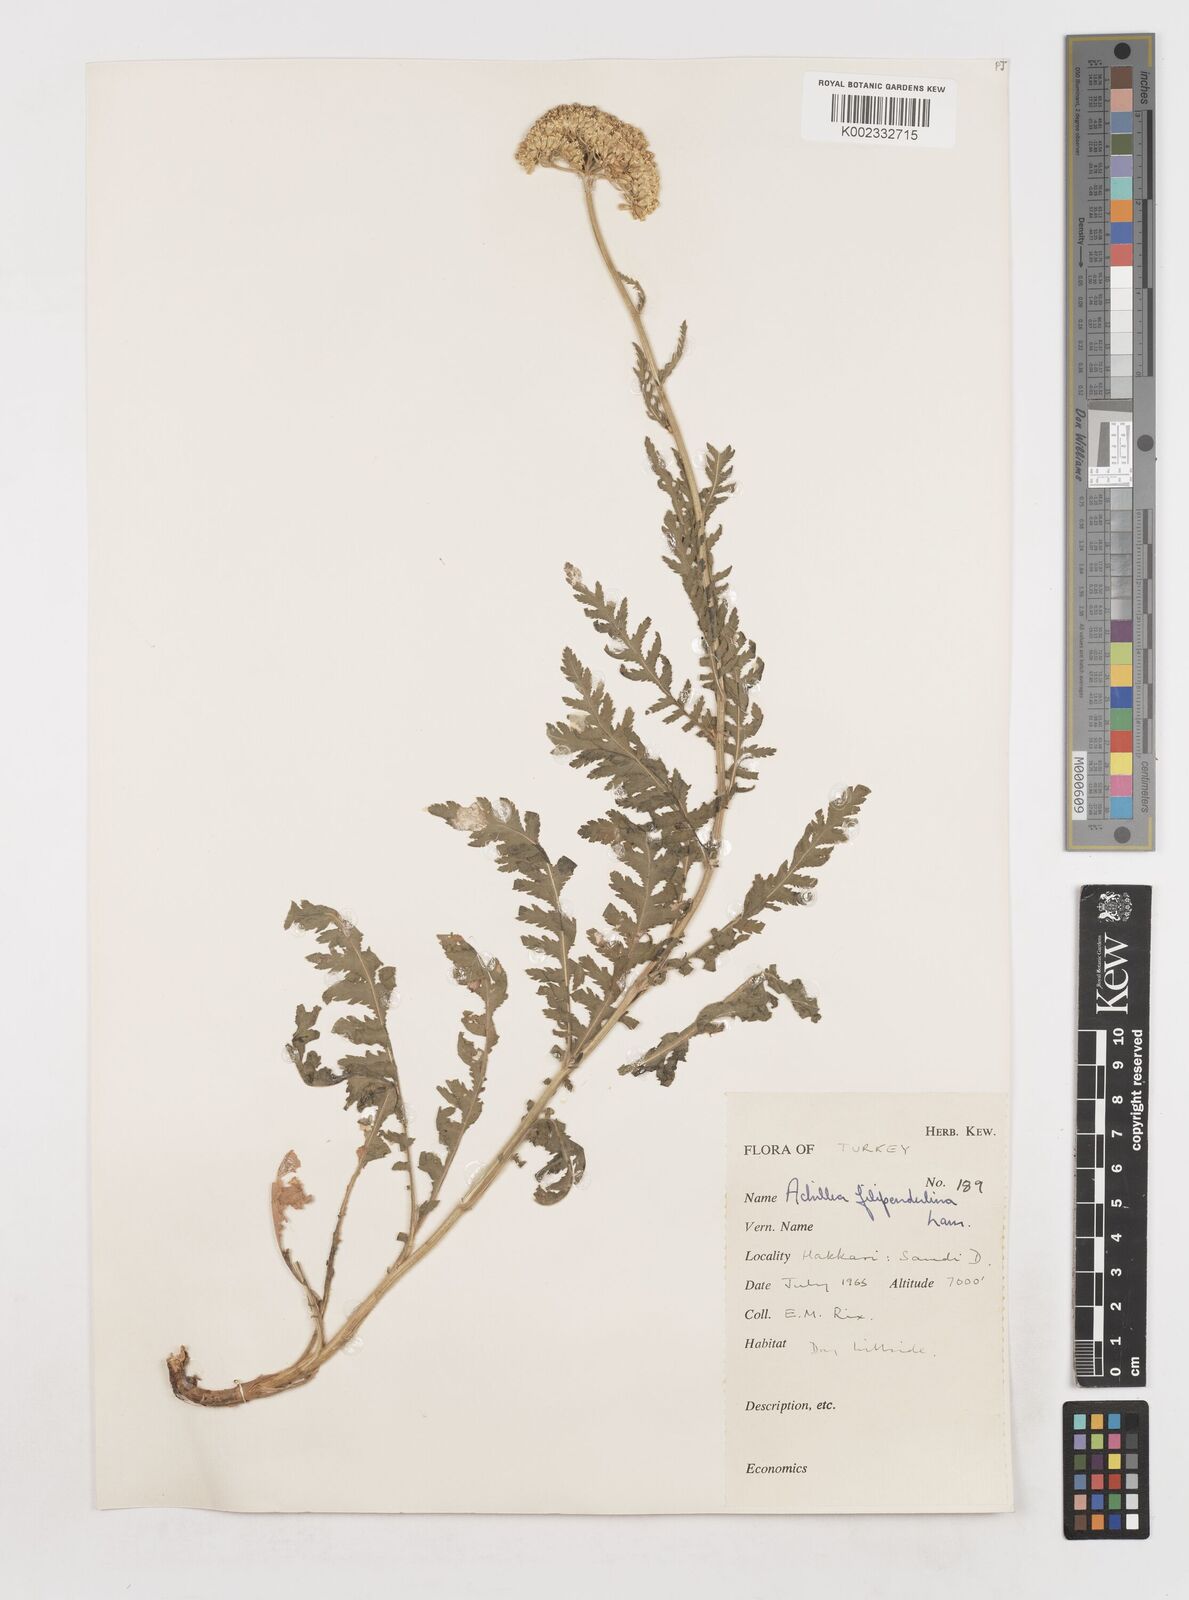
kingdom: Plantae
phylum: Tracheophyta
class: Magnoliopsida
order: Asterales
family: Asteraceae
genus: Achillea
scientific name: Achillea filipendulina
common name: Fernleaf yarrow
